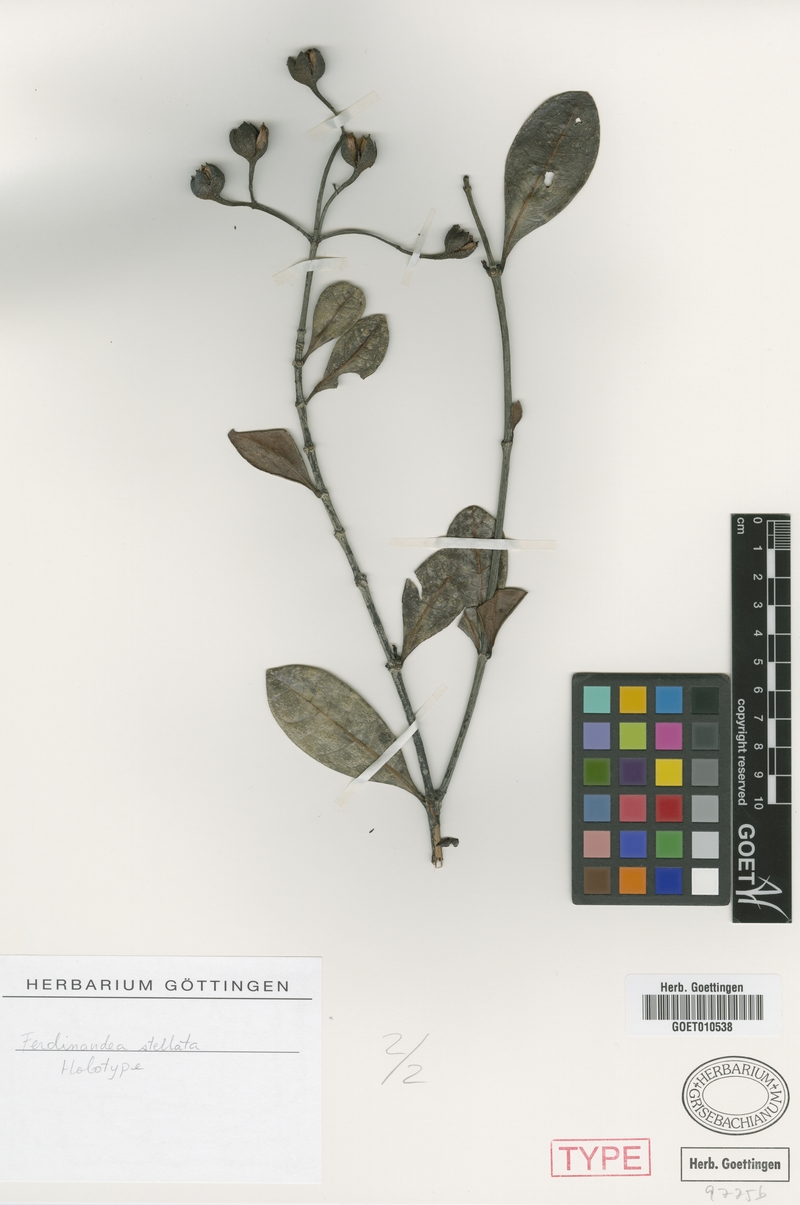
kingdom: Plantae
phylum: Tracheophyta
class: Magnoliopsida
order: Gentianales
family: Rubiaceae
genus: Suberanthus
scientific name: Suberanthus stellatus
